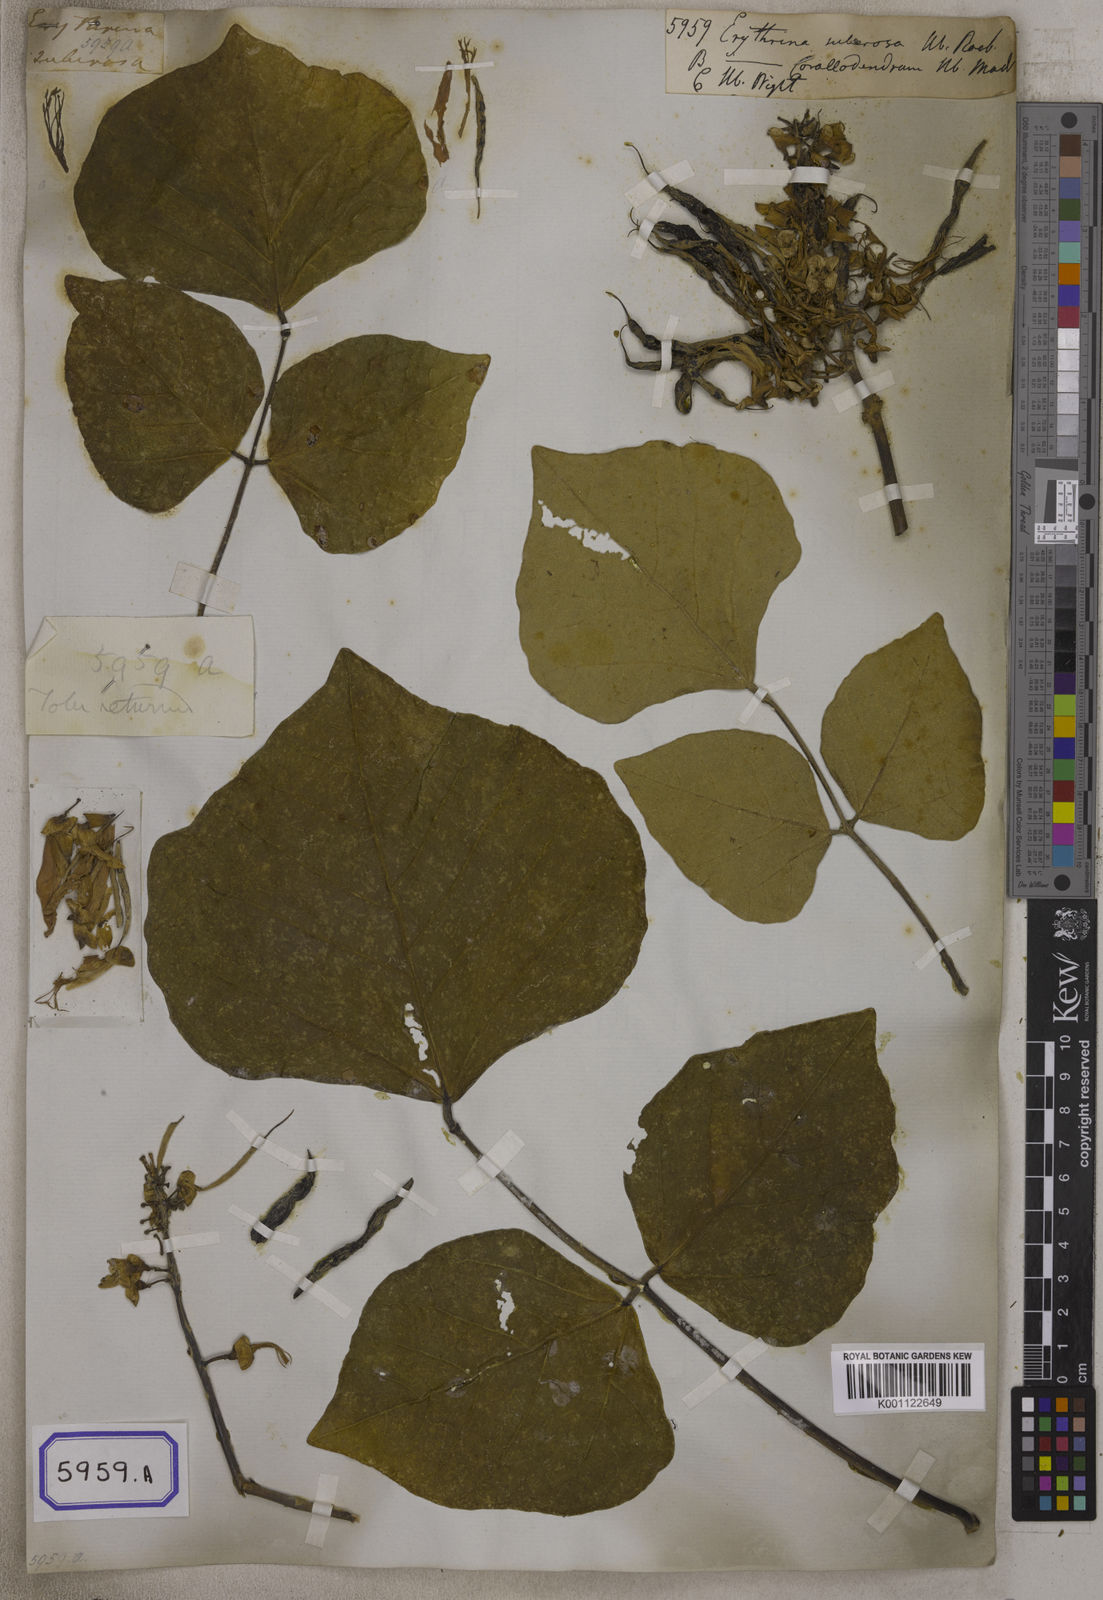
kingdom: Plantae
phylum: Tracheophyta
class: Magnoliopsida
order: Fabales
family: Fabaceae
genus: Erythrina
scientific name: Erythrina suberosa
